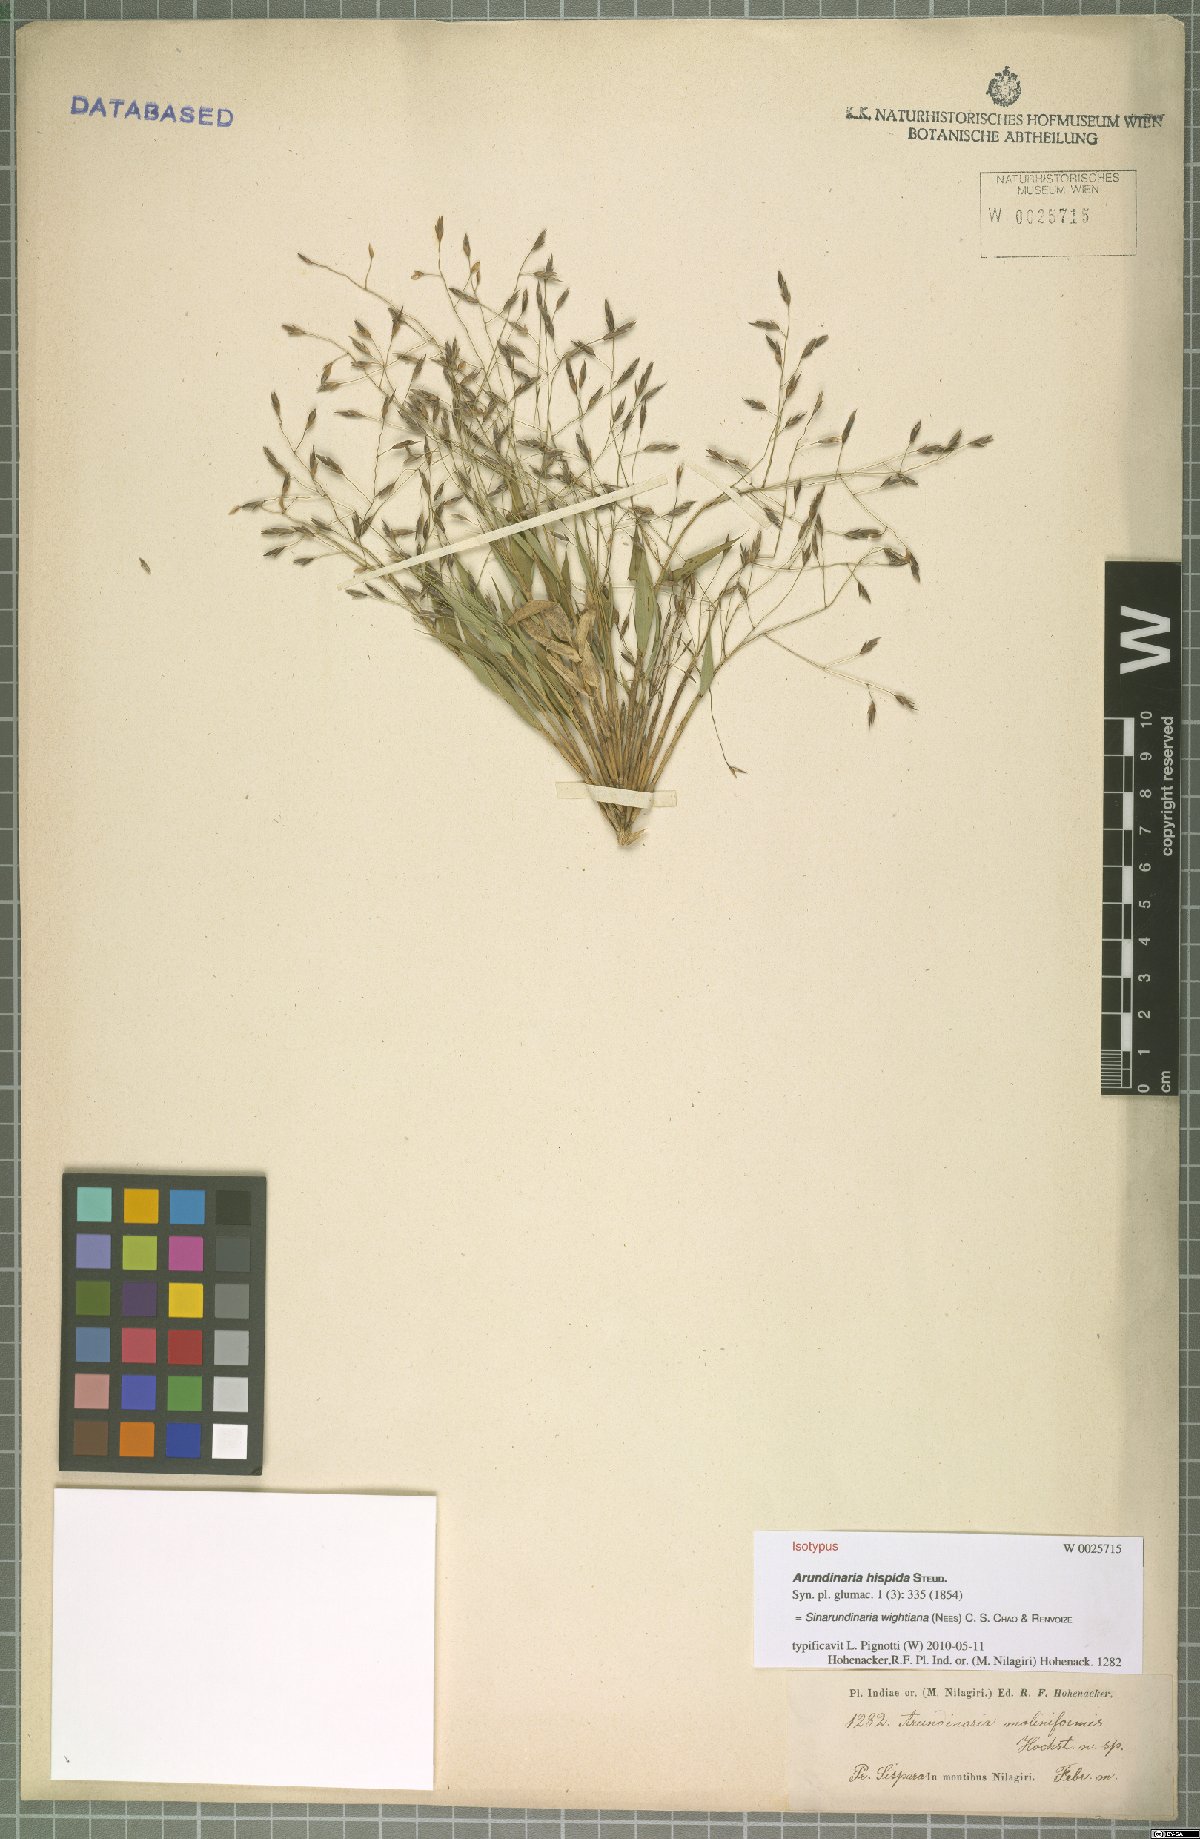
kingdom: Plantae
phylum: Tracheophyta
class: Liliopsida
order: Poales
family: Poaceae
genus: Kuruna
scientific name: Kuruna wightiana
